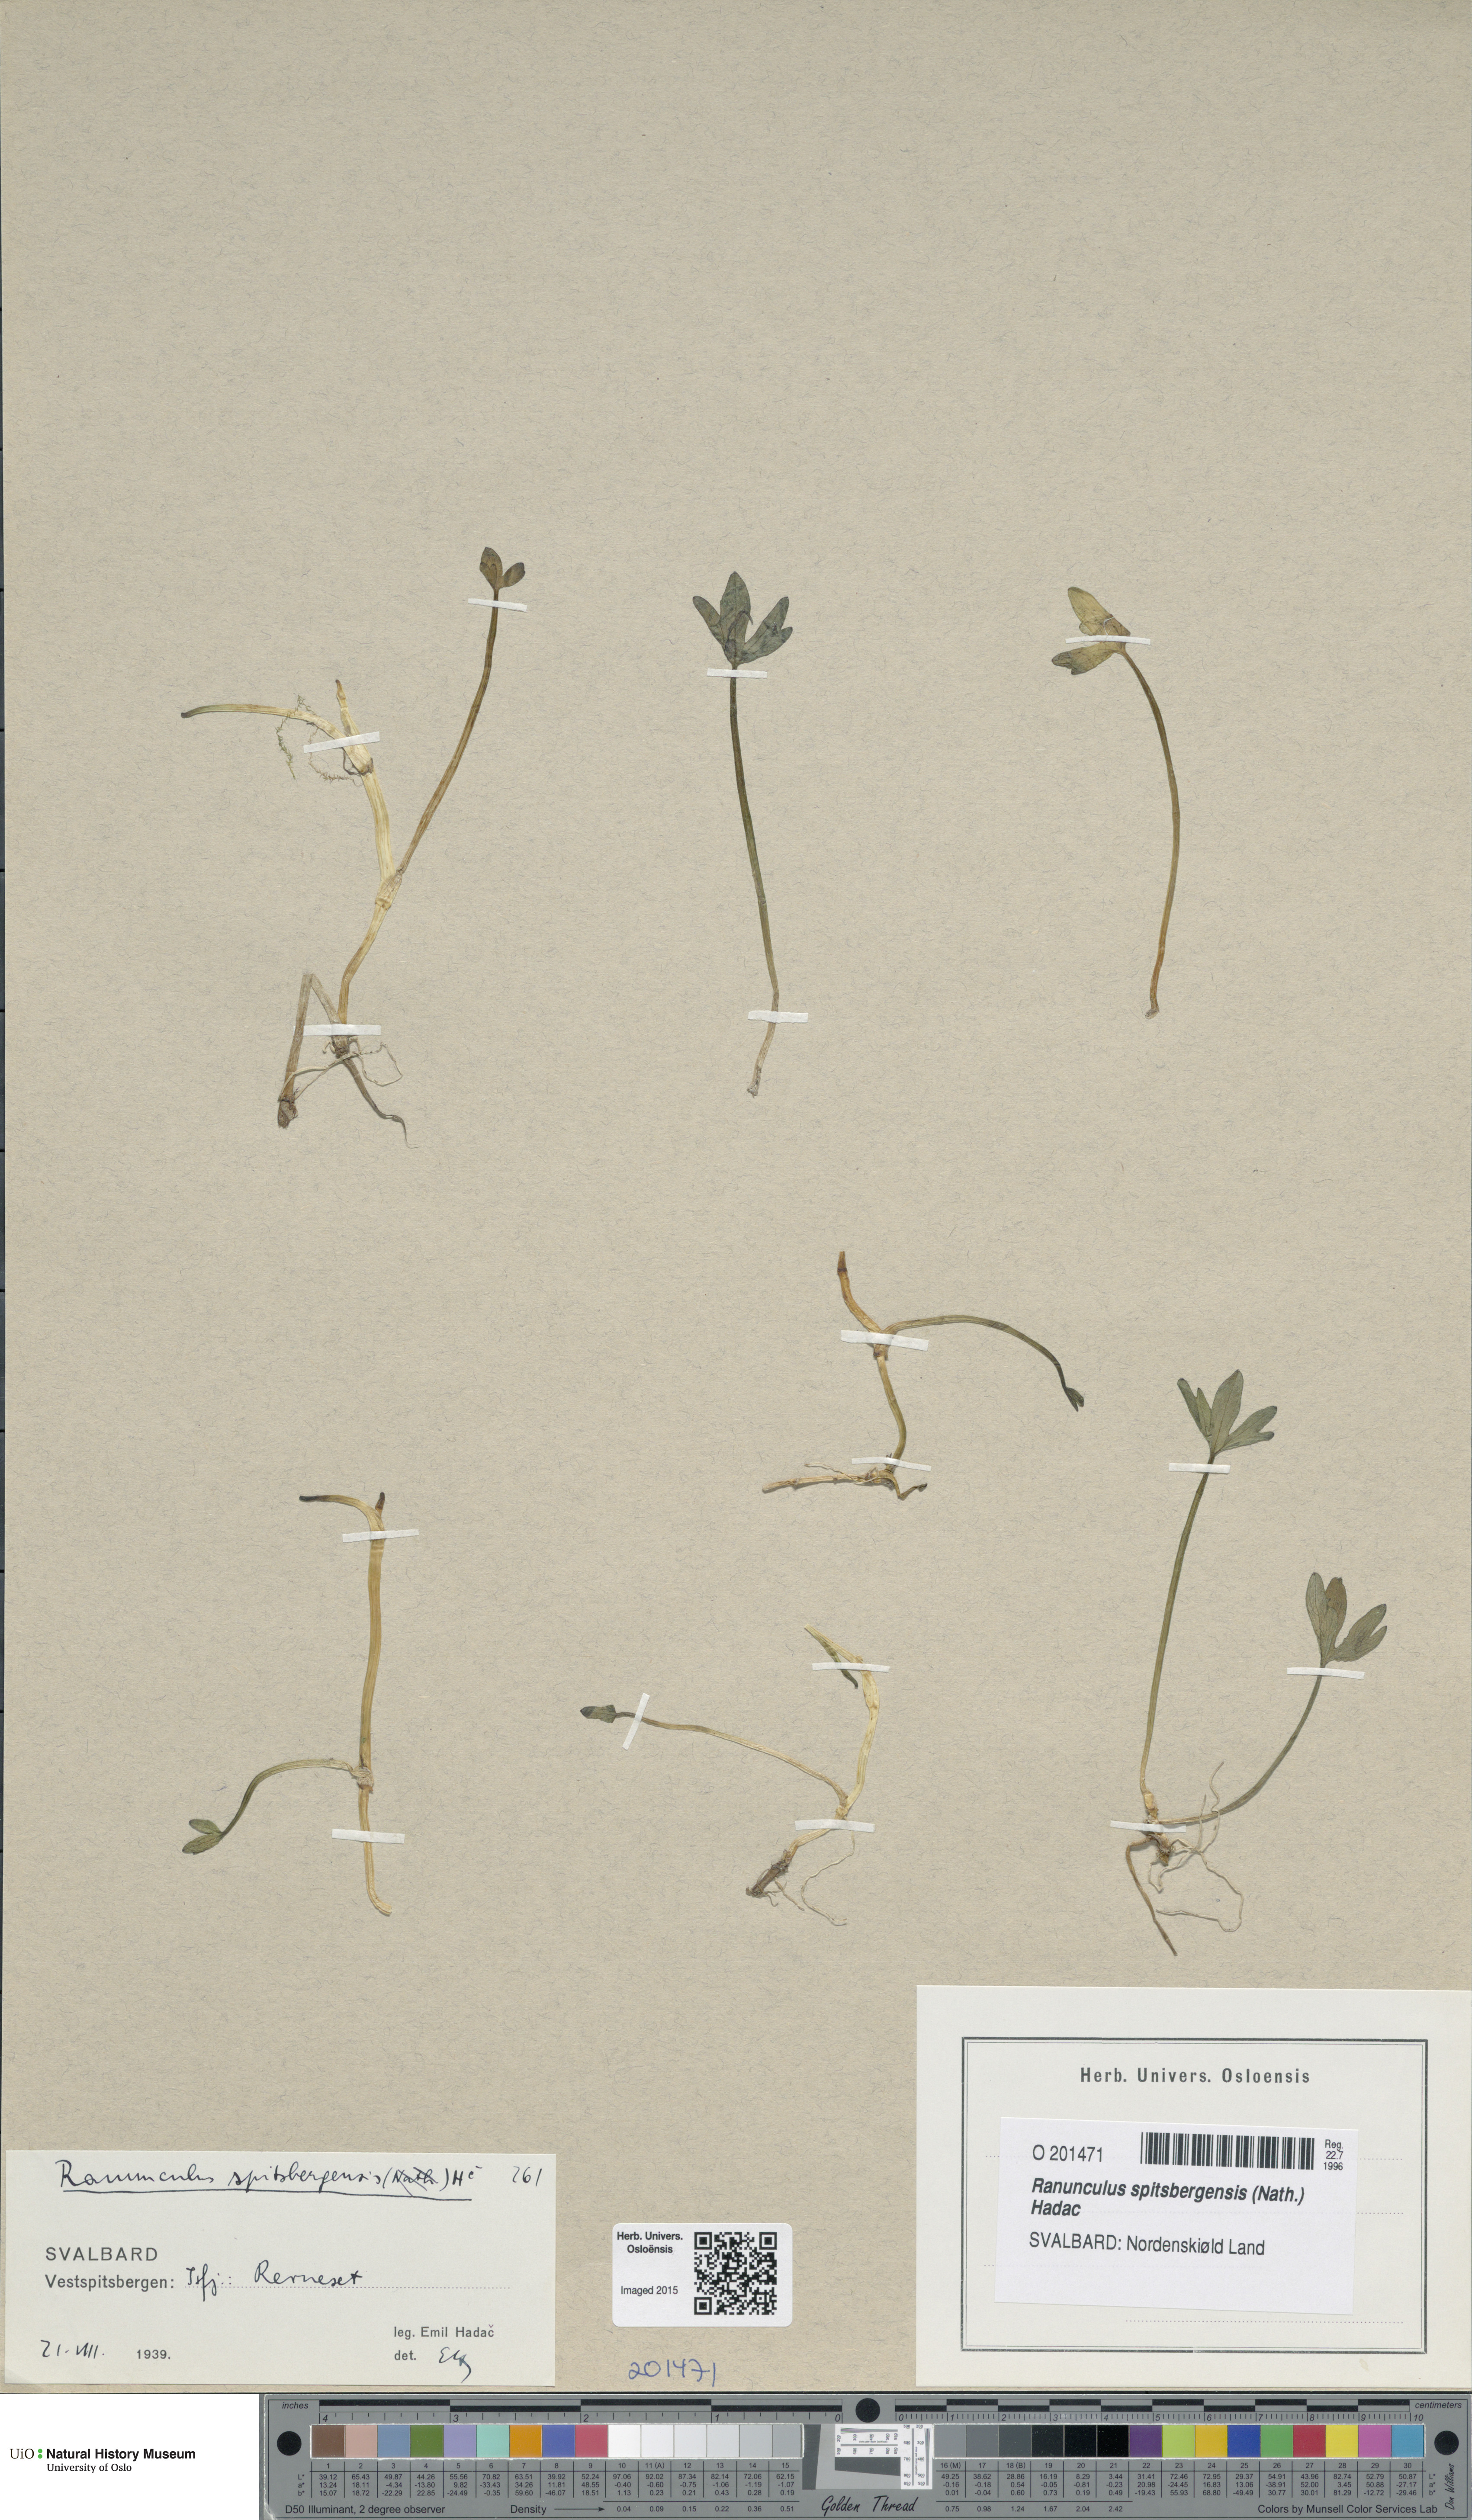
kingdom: Plantae
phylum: Tracheophyta
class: Magnoliopsida
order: Ranunculales
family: Ranunculaceae
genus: Coptidium
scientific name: Coptidium spitsbergense
